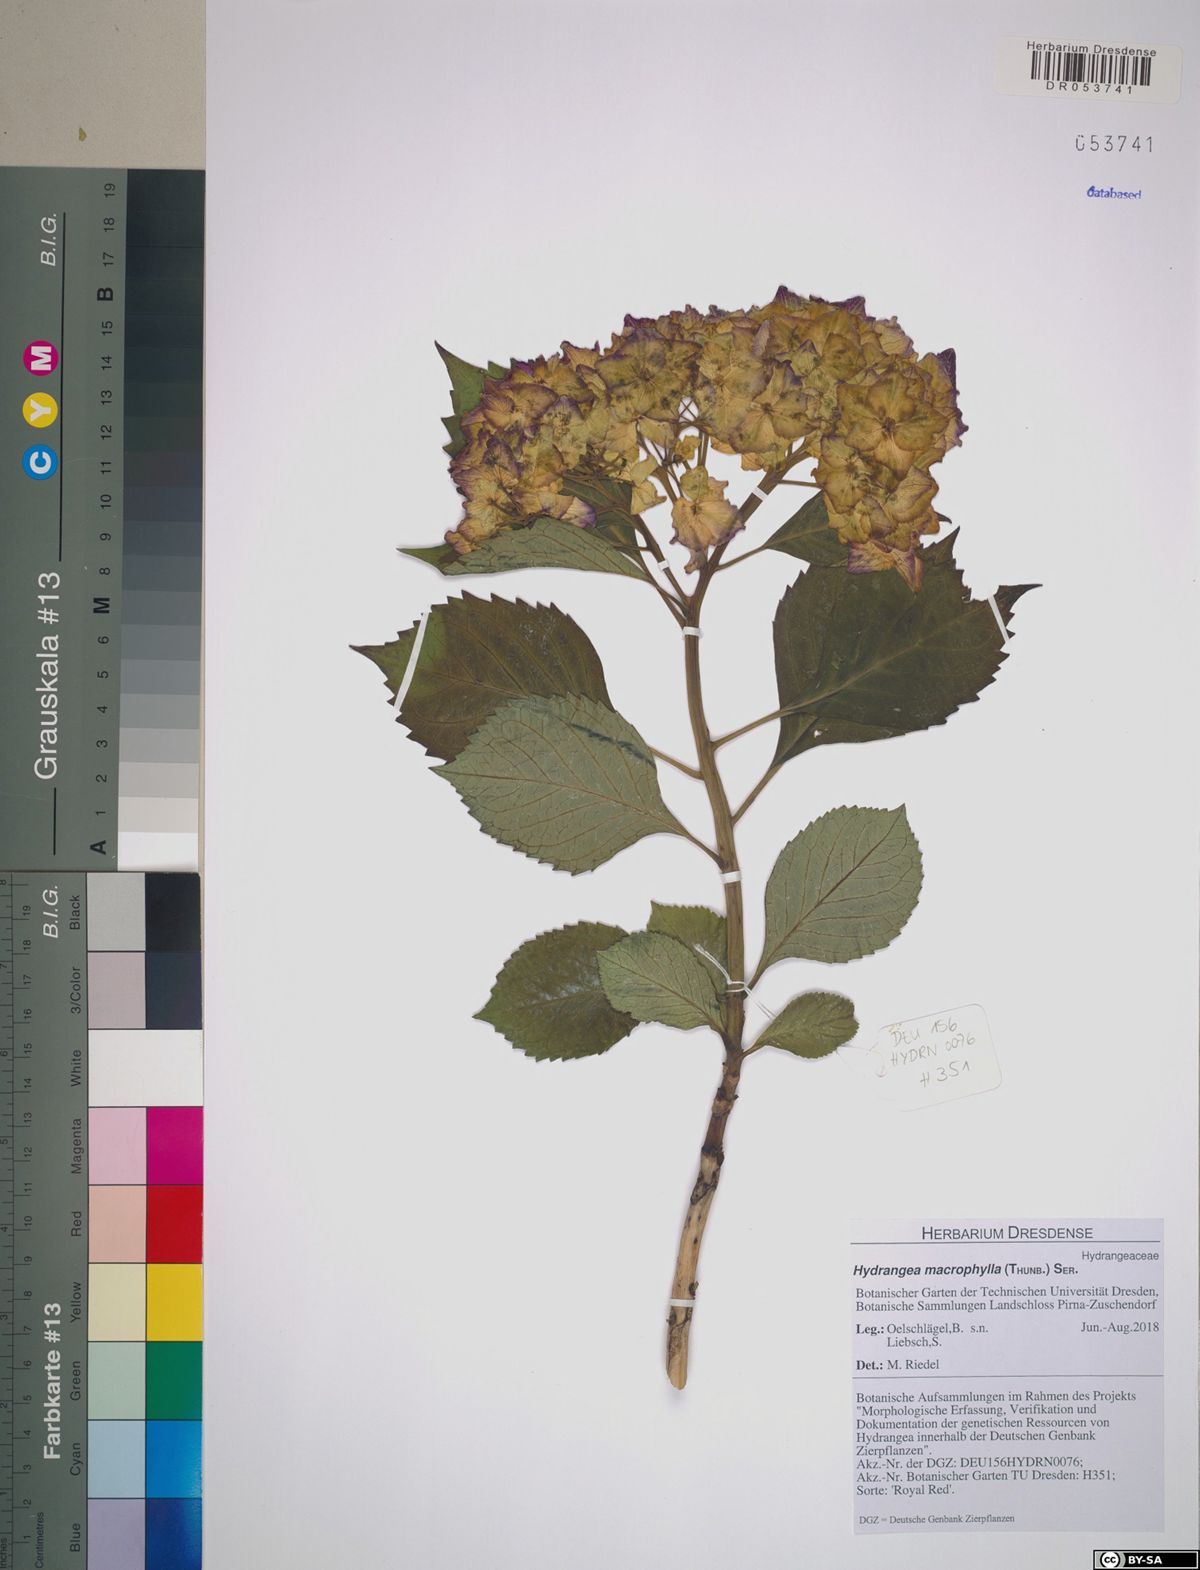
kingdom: Plantae
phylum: Tracheophyta
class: Magnoliopsida
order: Cornales
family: Hydrangeaceae
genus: Hydrangea
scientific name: Hydrangea macrophylla
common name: Hydrangea
